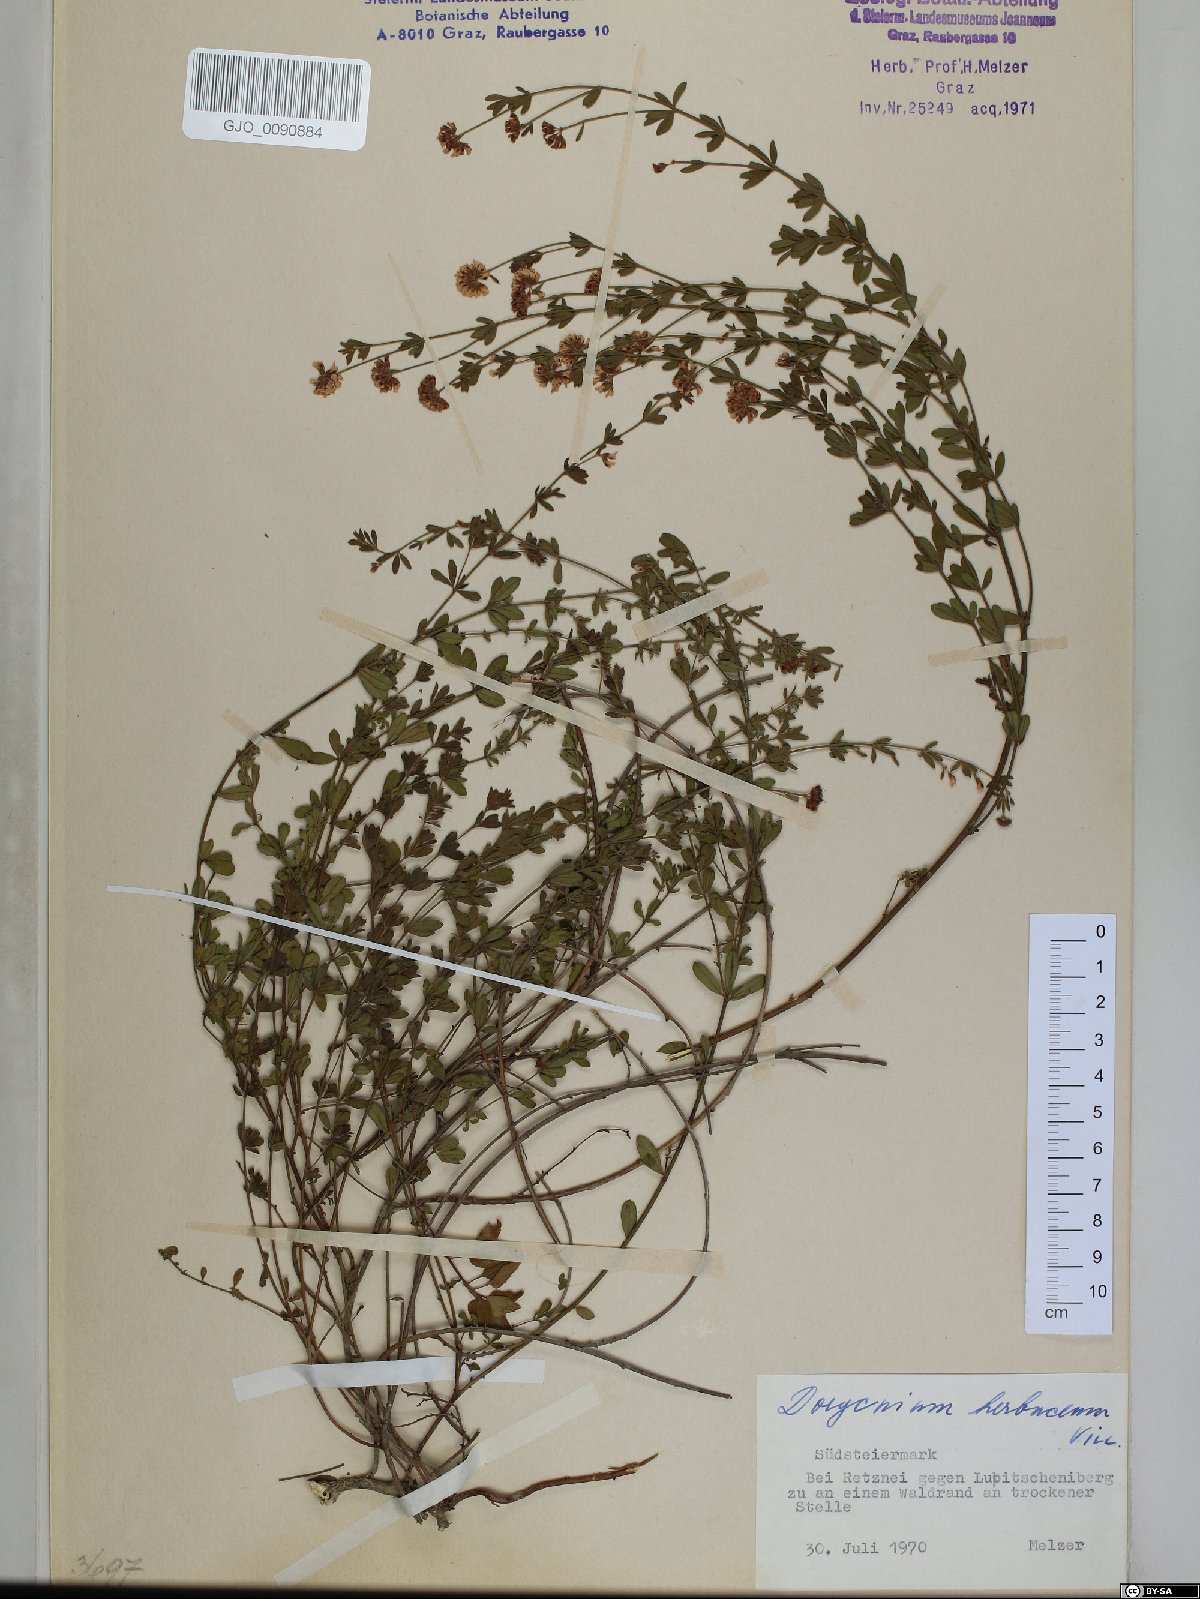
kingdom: Plantae
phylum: Tracheophyta
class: Magnoliopsida
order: Fabales
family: Fabaceae
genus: Lotus
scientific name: Lotus herbaceus
